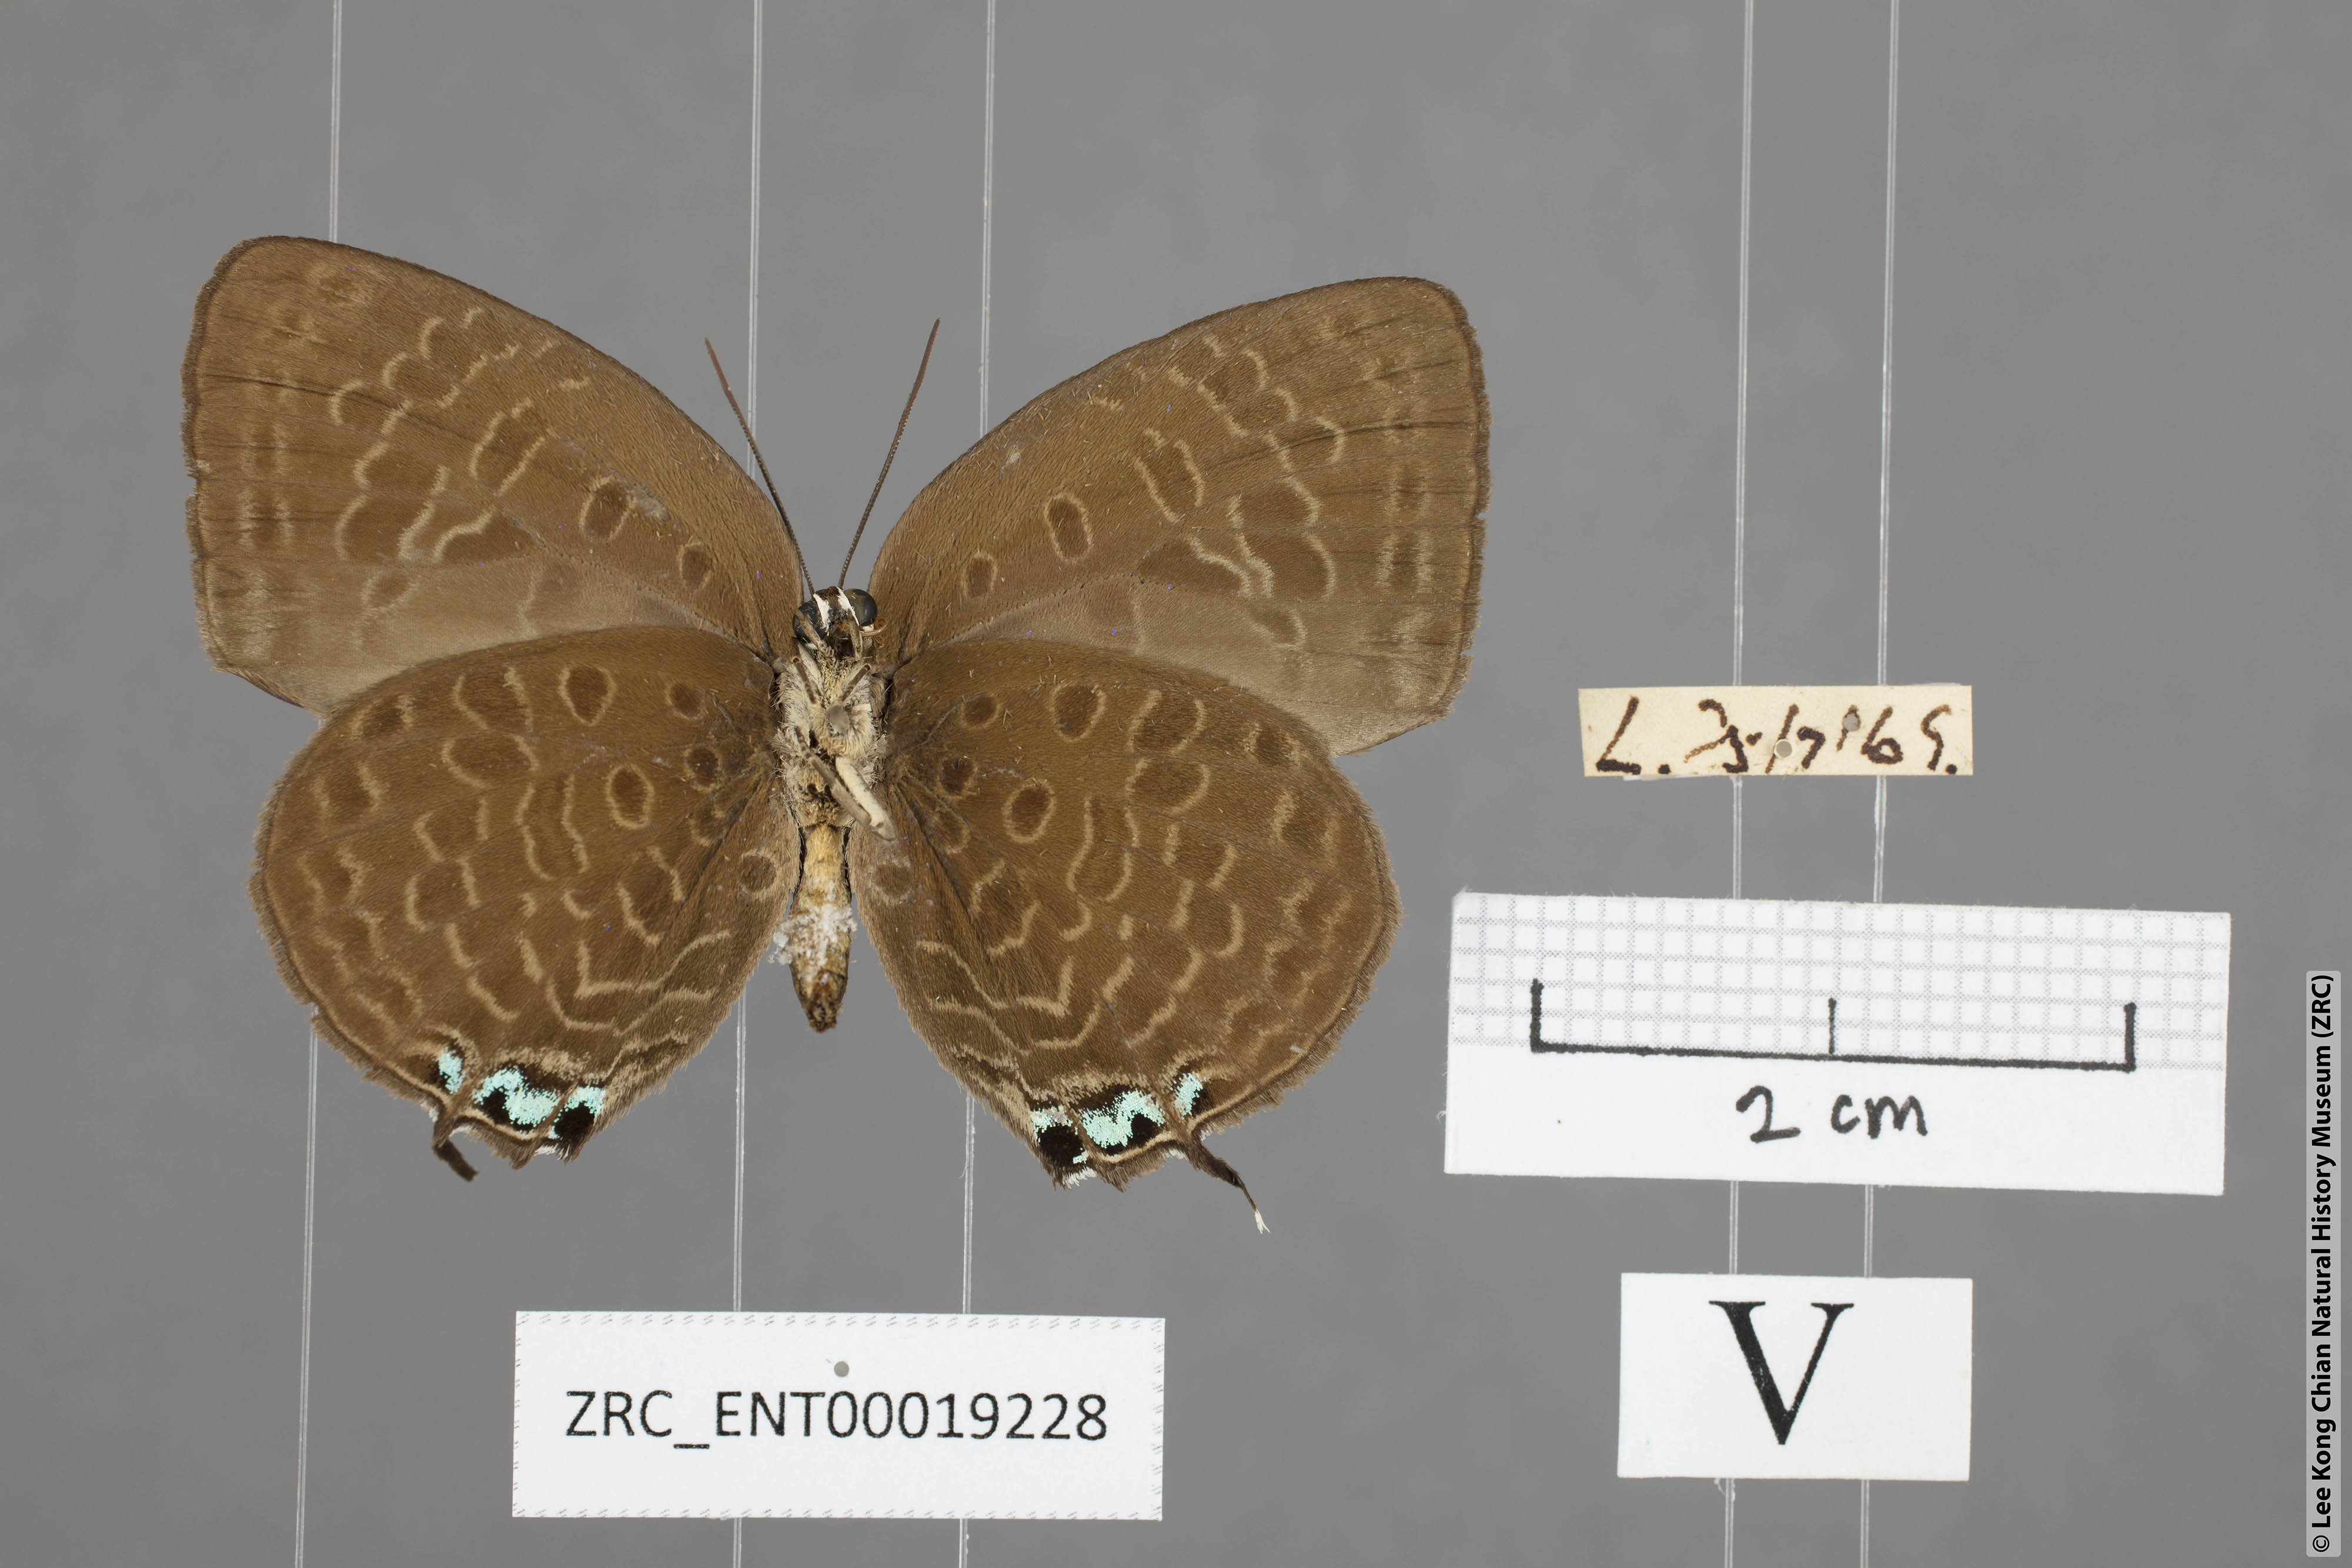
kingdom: Animalia
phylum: Arthropoda
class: Insecta
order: Lepidoptera
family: Lycaenidae
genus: Arhopala
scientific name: Arhopala atosia
